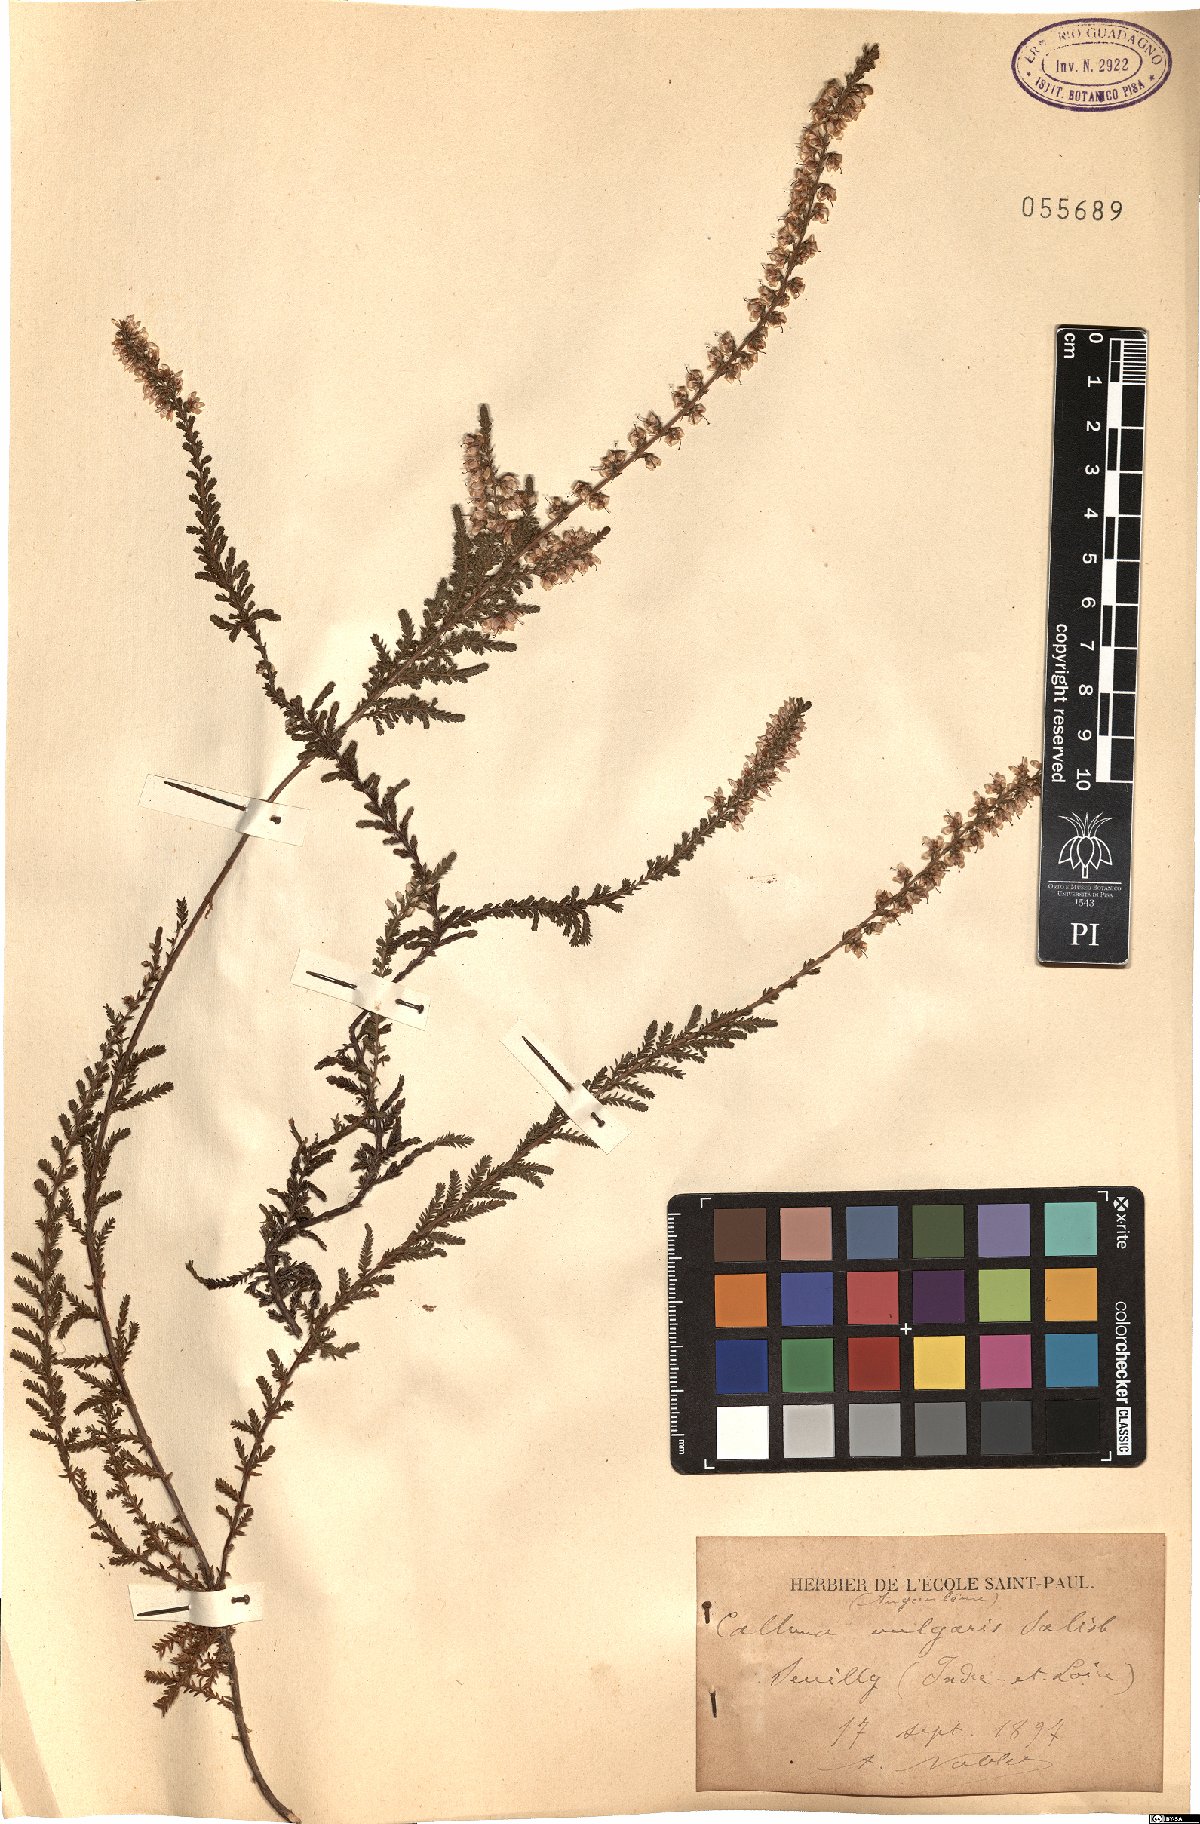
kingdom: Plantae
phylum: Tracheophyta
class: Magnoliopsida
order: Ericales
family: Ericaceae
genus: Calluna
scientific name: Calluna vulgaris
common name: Heather
